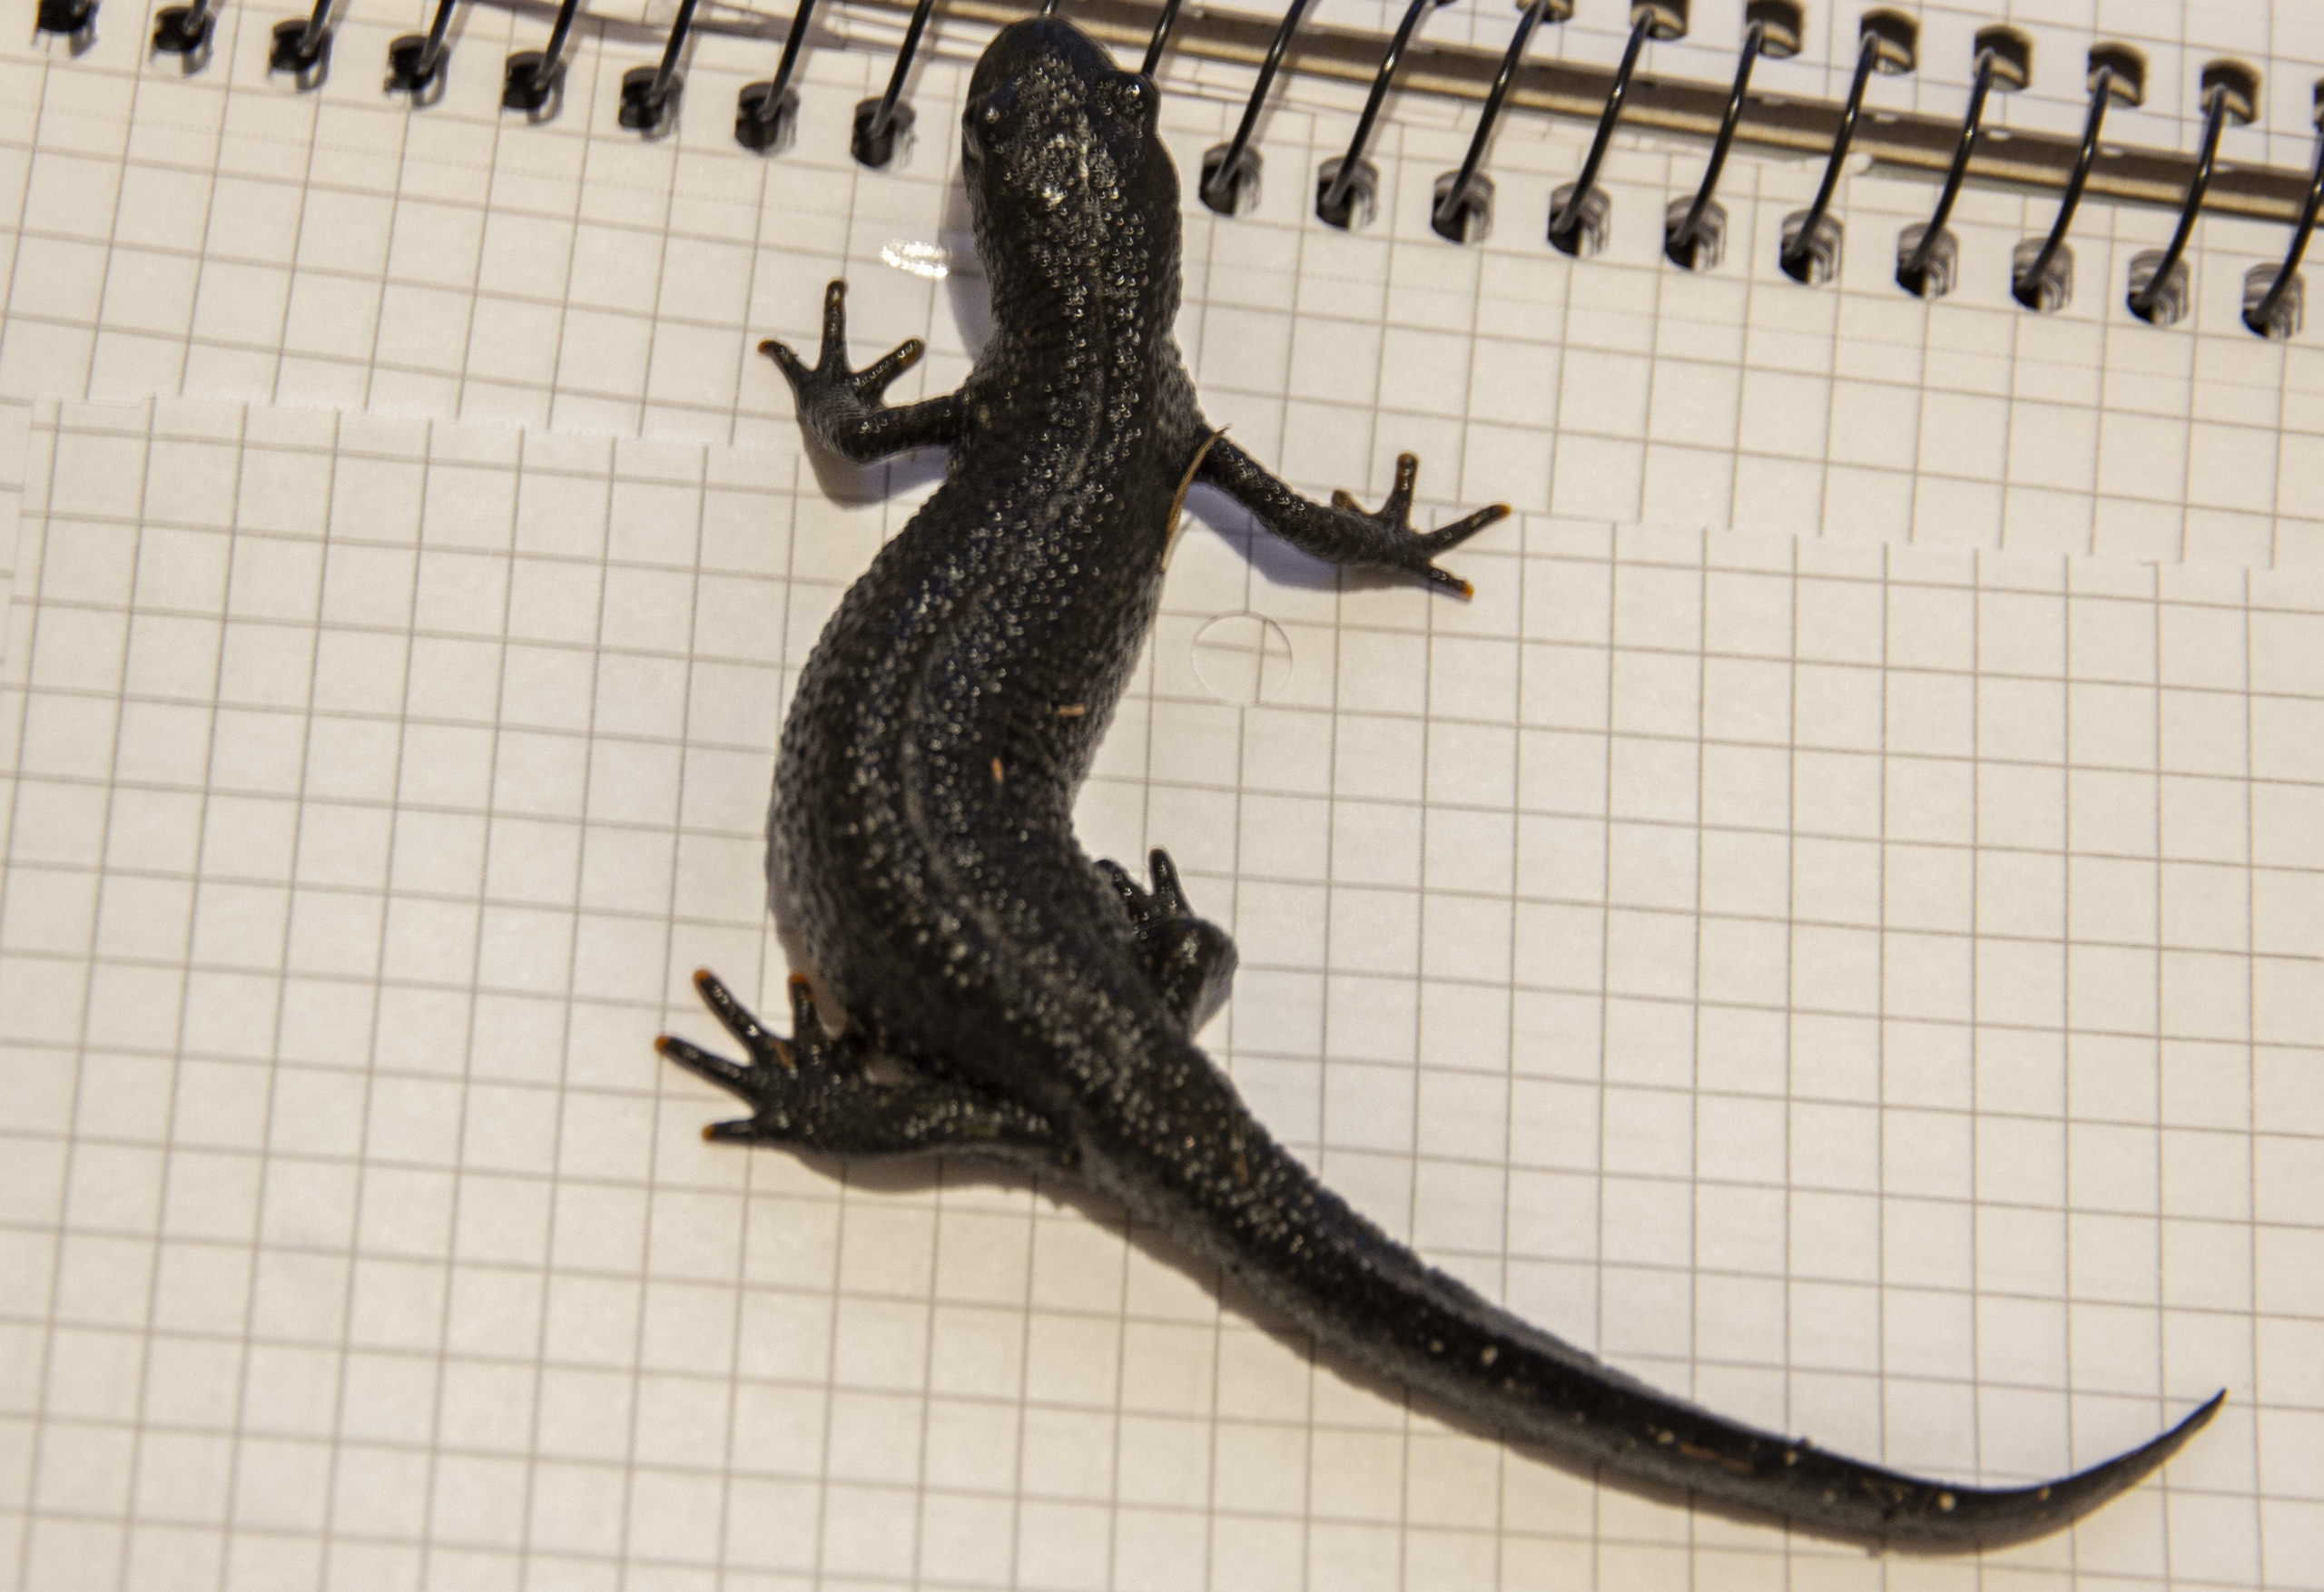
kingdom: Animalia
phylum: Chordata
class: Amphibia
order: Caudata
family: Salamandridae
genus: Triturus
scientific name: Triturus cristatus
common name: Stor vandsalamander
